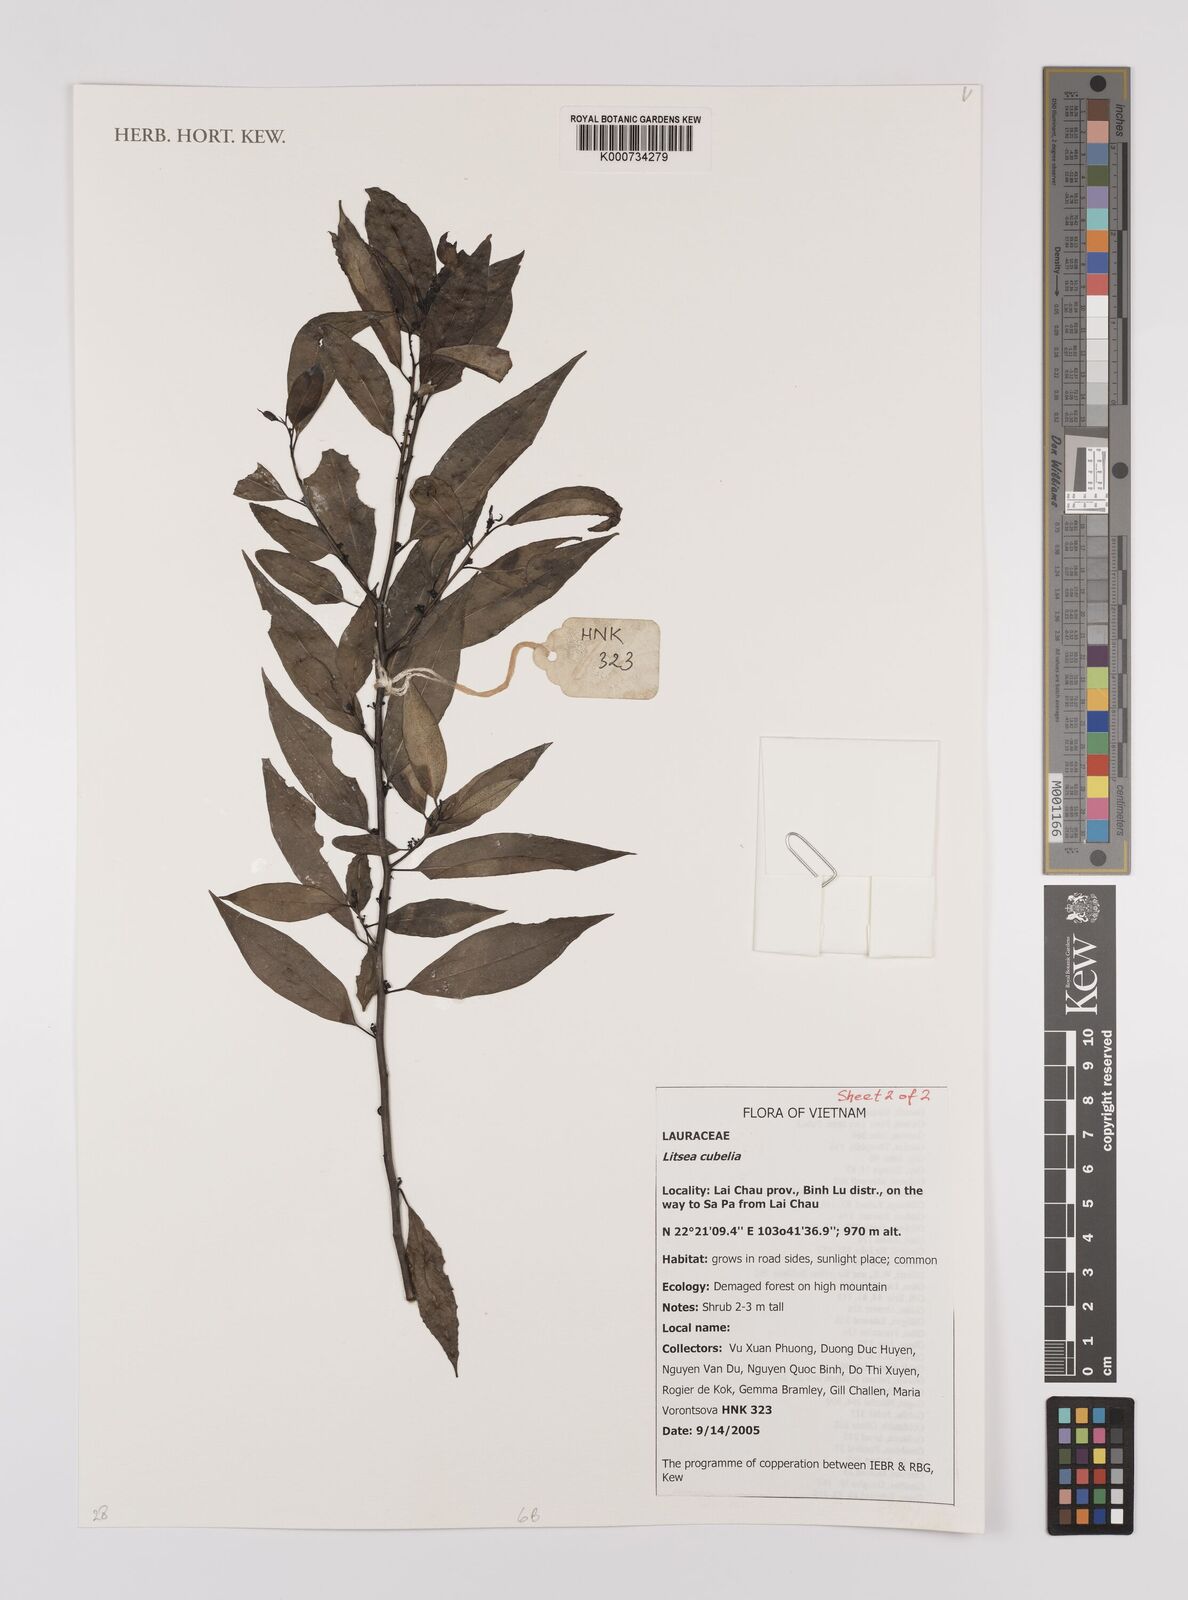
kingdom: Plantae
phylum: Tracheophyta
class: Magnoliopsida
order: Laurales
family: Lauraceae
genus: Cryptocarya
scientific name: Cryptocarya ainikinii
